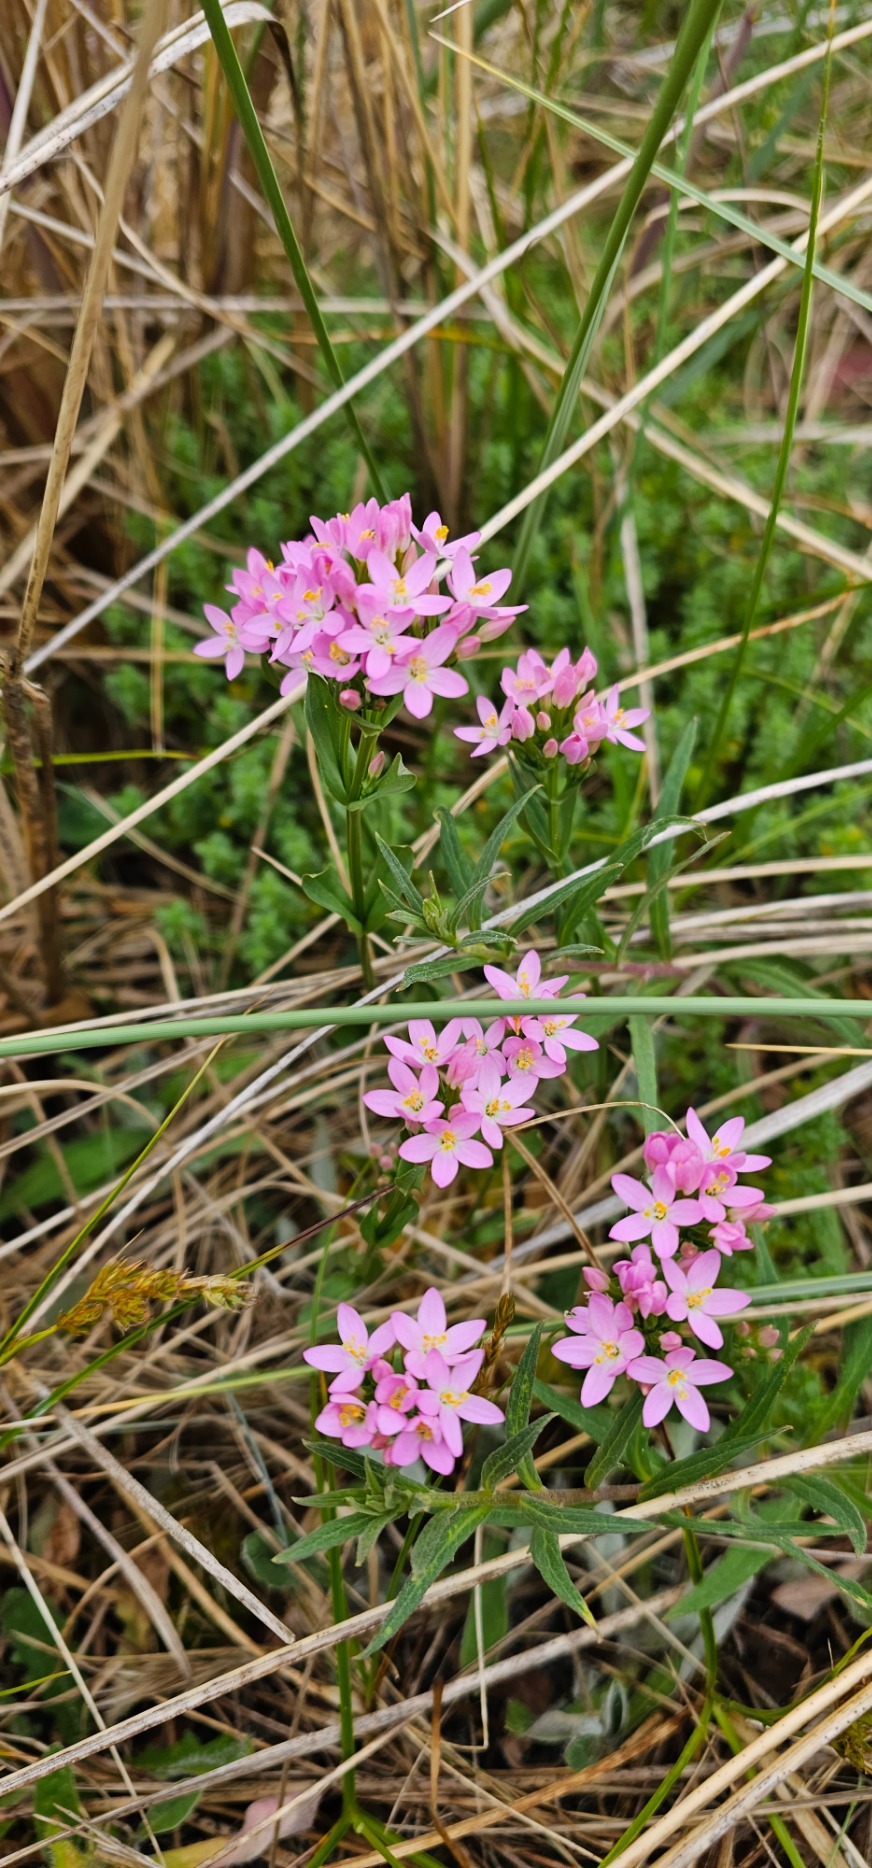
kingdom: Plantae
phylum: Tracheophyta
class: Magnoliopsida
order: Gentianales
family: Gentianaceae
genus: Centaurium
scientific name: Centaurium erythraea
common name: Mark-tusindgylden
